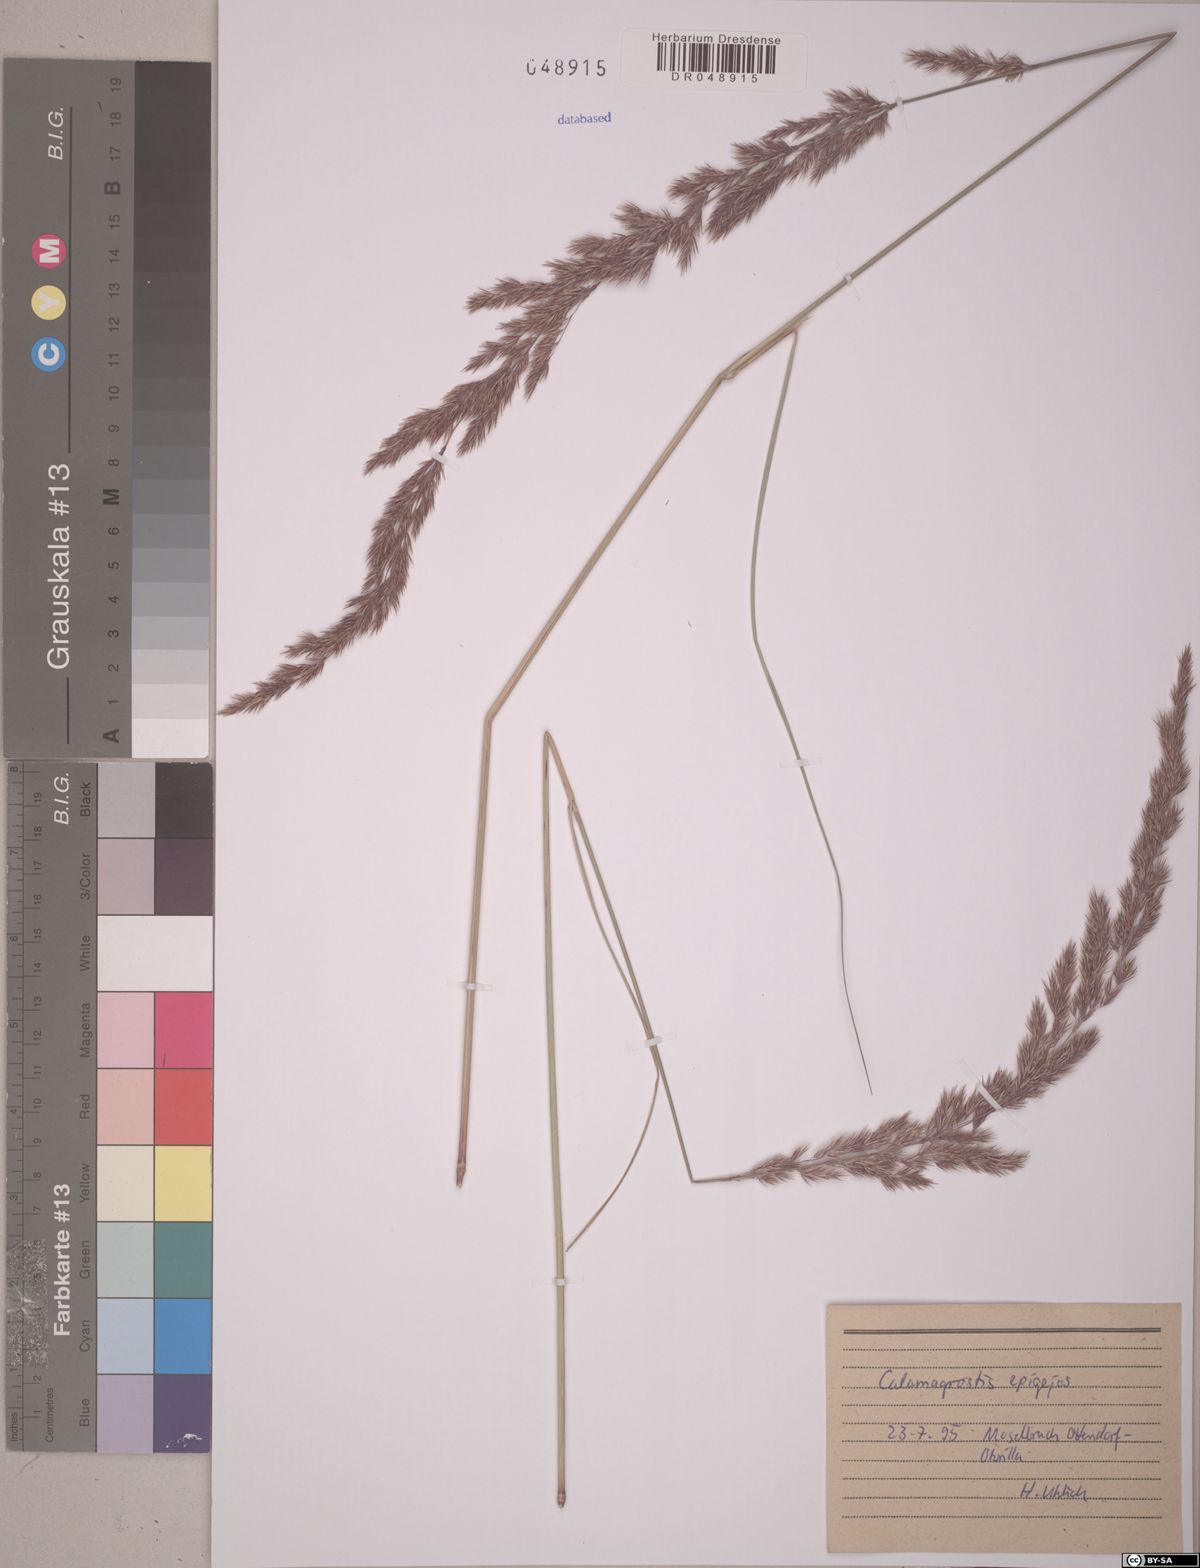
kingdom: Plantae
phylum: Tracheophyta
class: Liliopsida
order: Poales
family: Poaceae
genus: Calamagrostis
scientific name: Calamagrostis epigejos
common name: Wood small-reed
